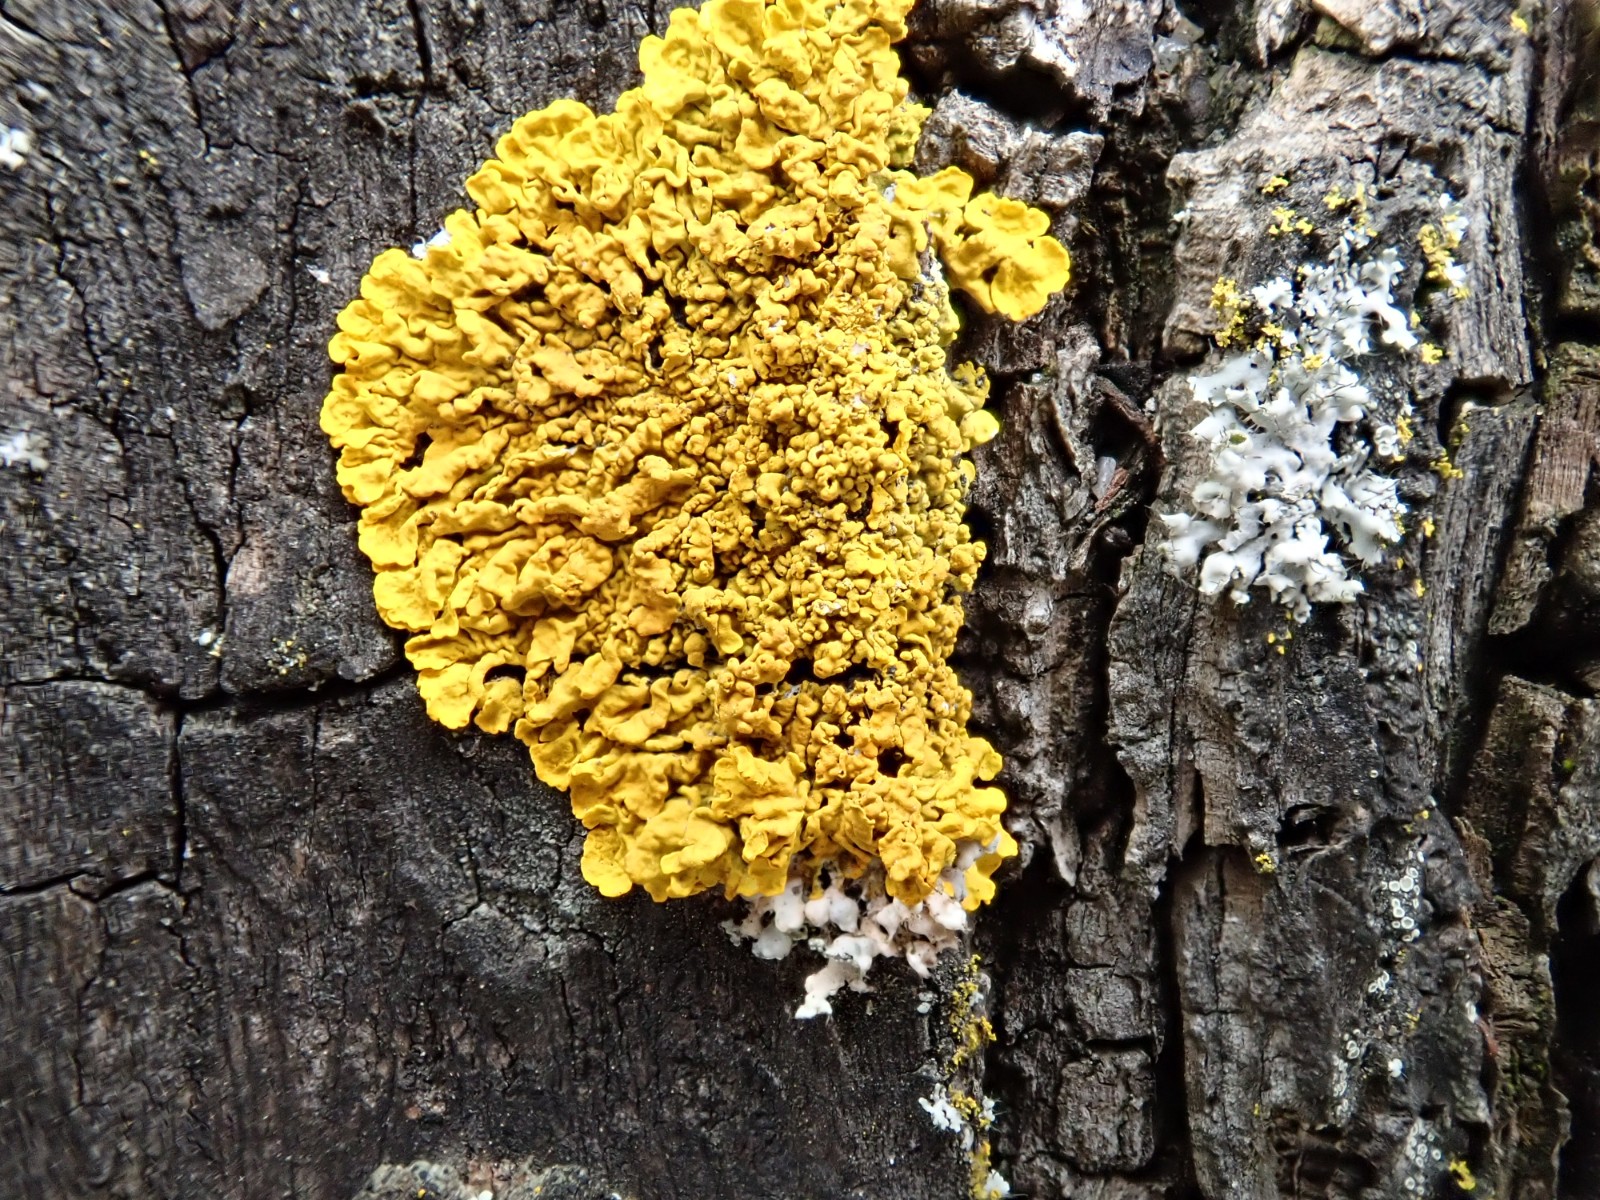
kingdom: Fungi
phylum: Ascomycota
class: Lecanoromycetes
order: Teloschistales
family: Teloschistaceae
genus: Xanthoria
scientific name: Xanthoria calcicola
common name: vortet væggelav
